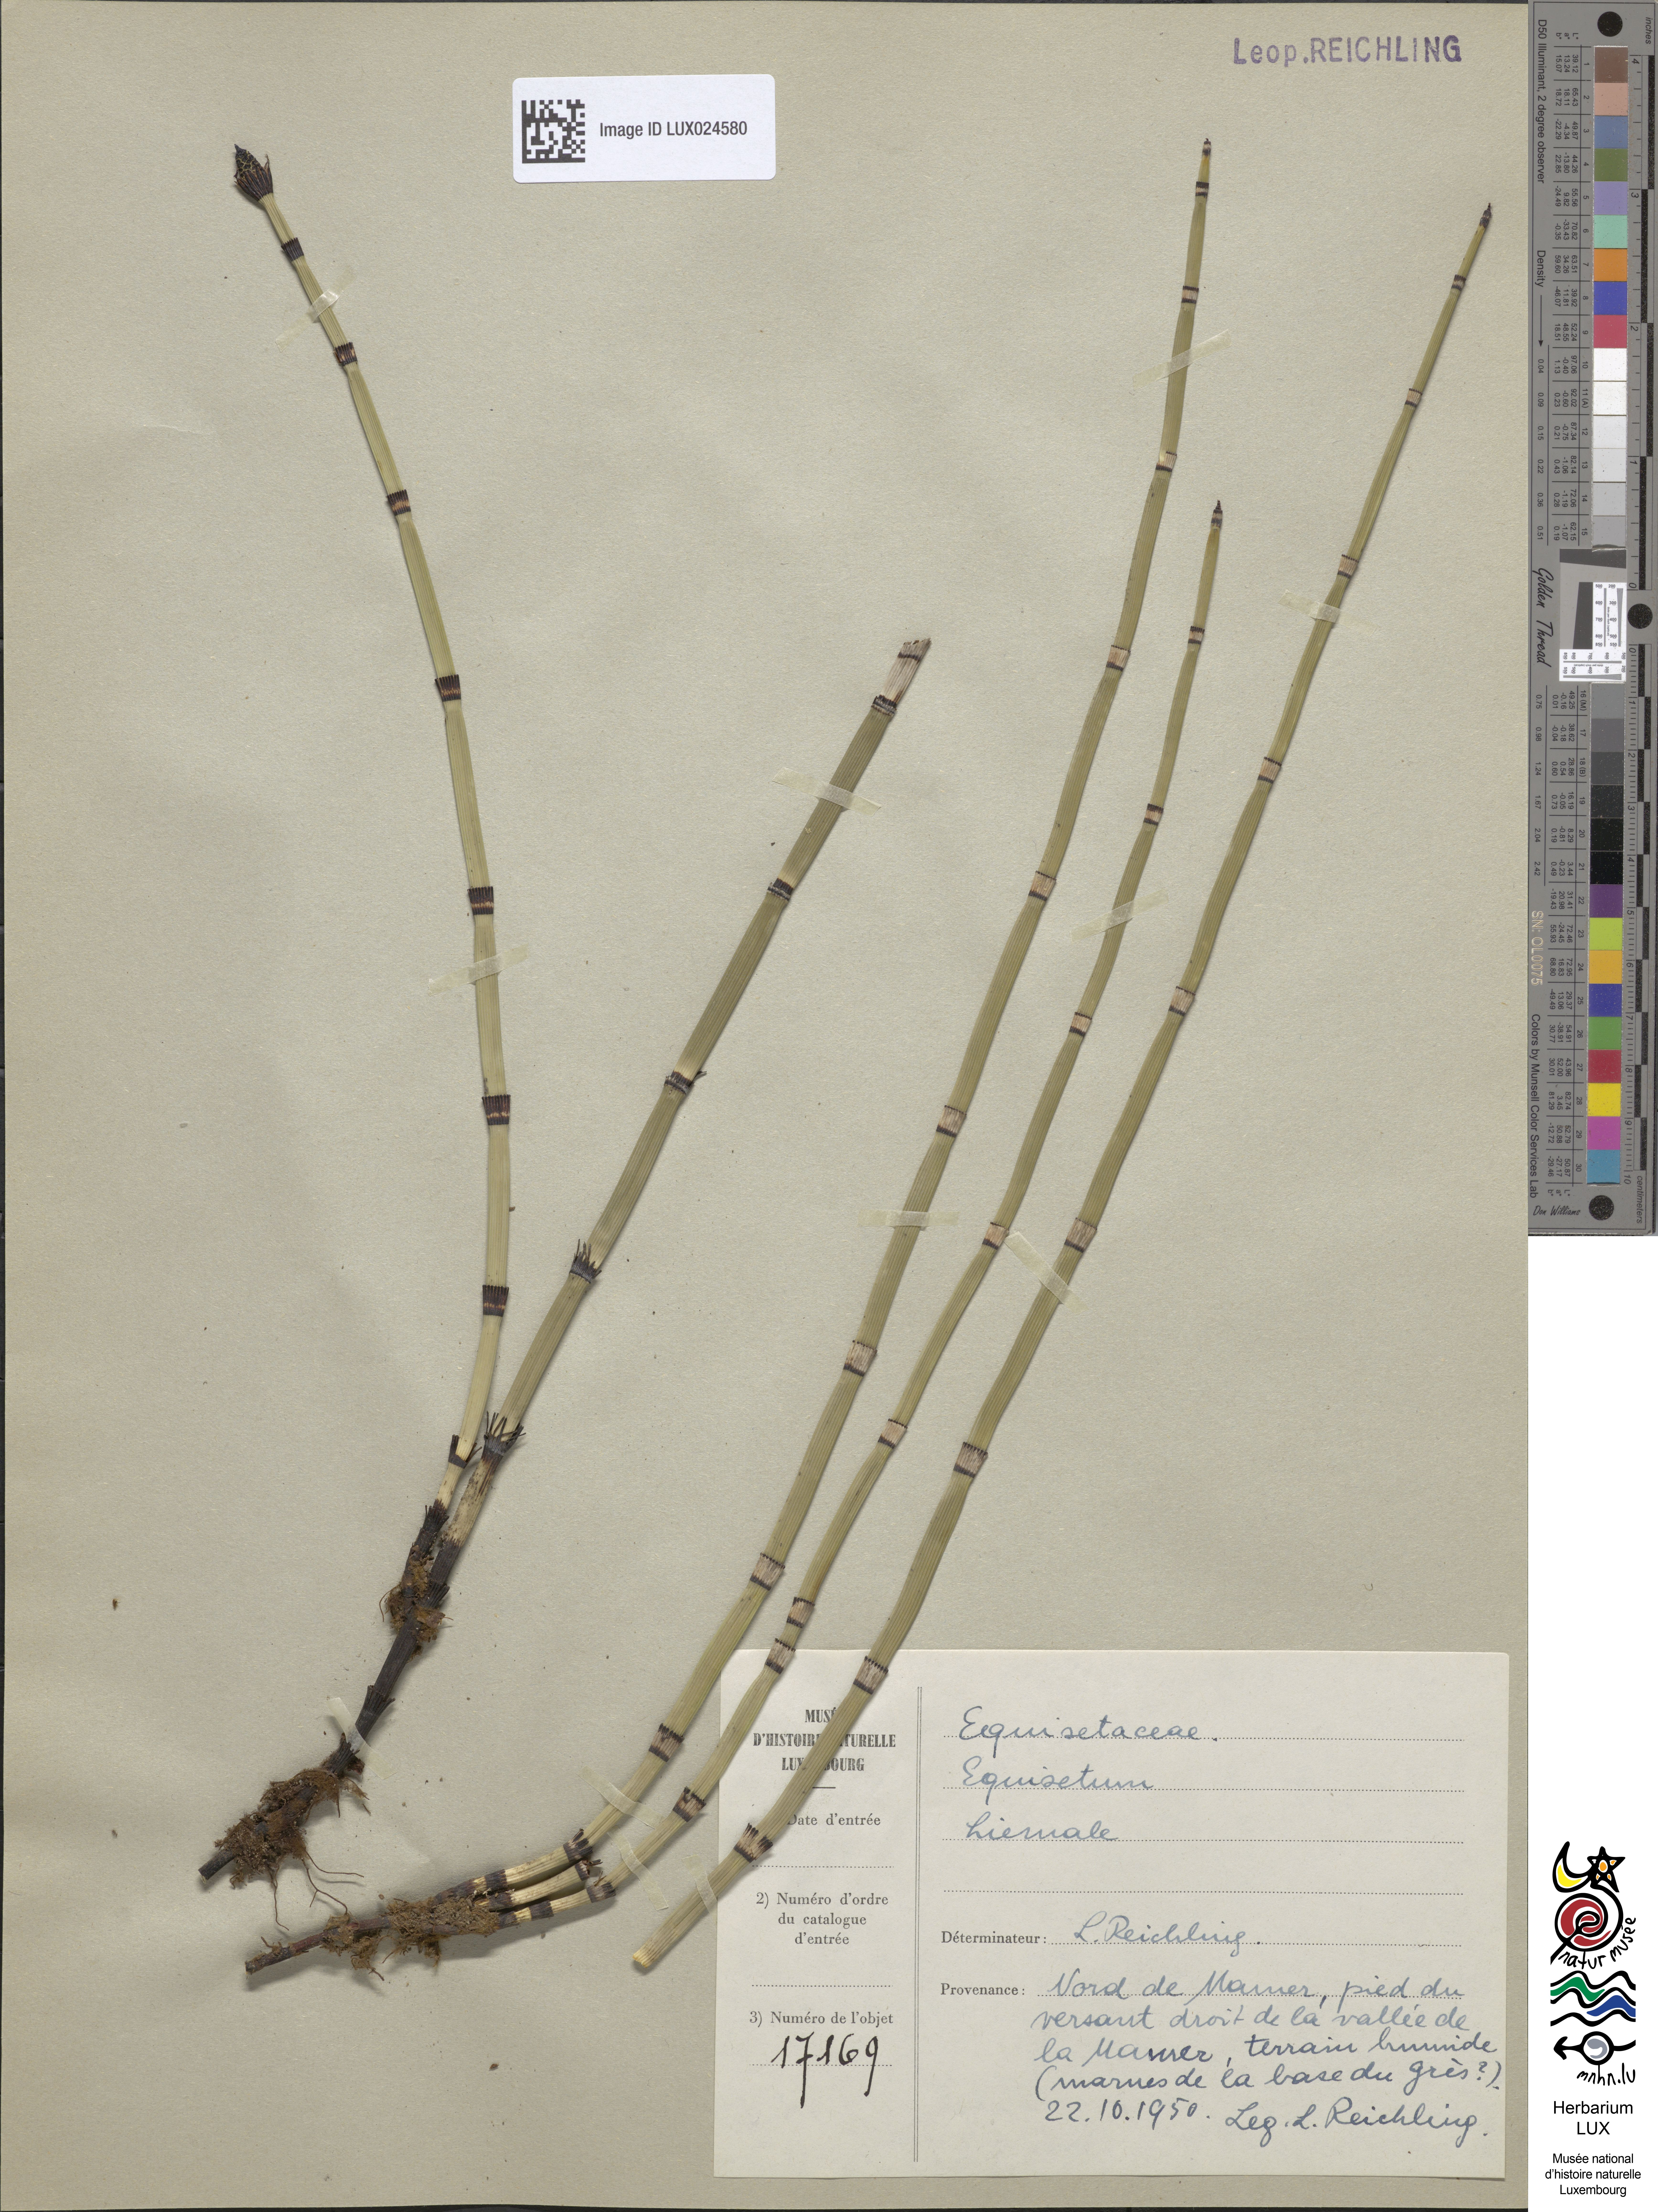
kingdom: Plantae
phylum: Tracheophyta
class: Polypodiopsida
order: Equisetales
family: Equisetaceae
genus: Equisetum
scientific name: Equisetum hyemale
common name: Rough horsetail
